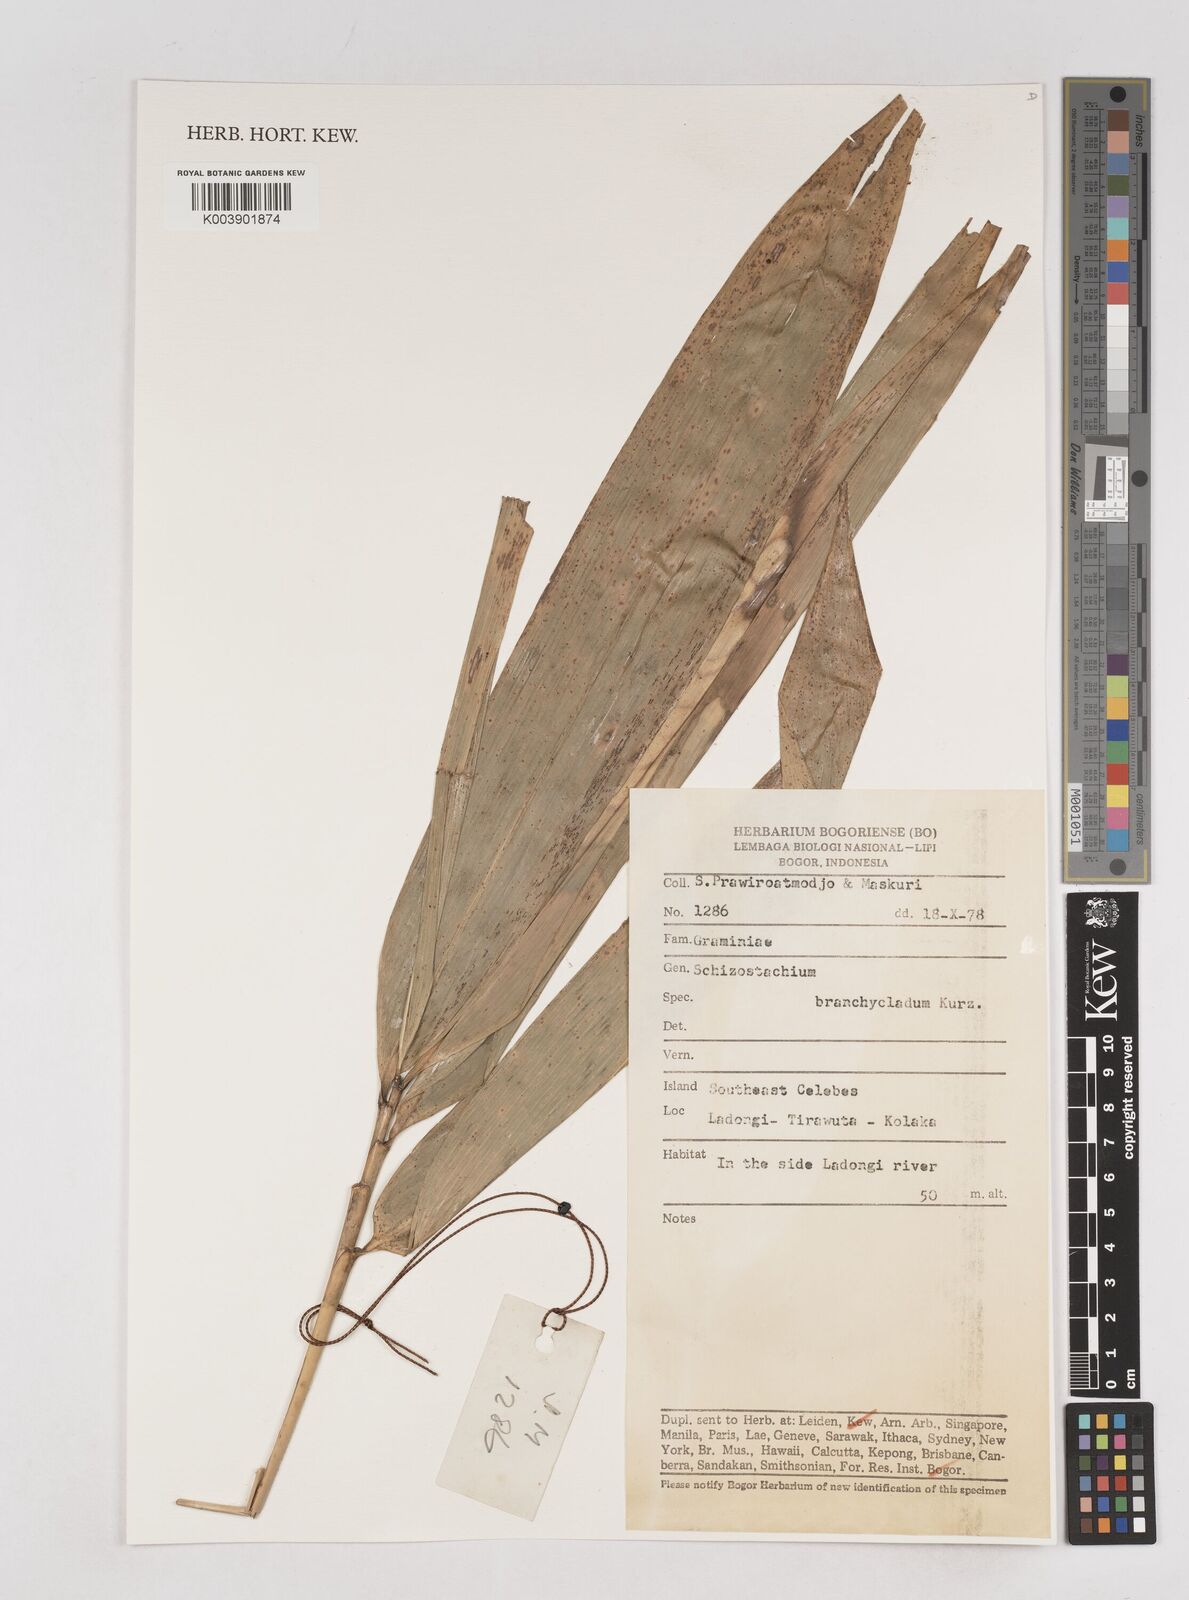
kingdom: Plantae
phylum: Tracheophyta
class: Liliopsida
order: Poales
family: Poaceae
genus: Schizostachyum
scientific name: Schizostachyum brachycladum
